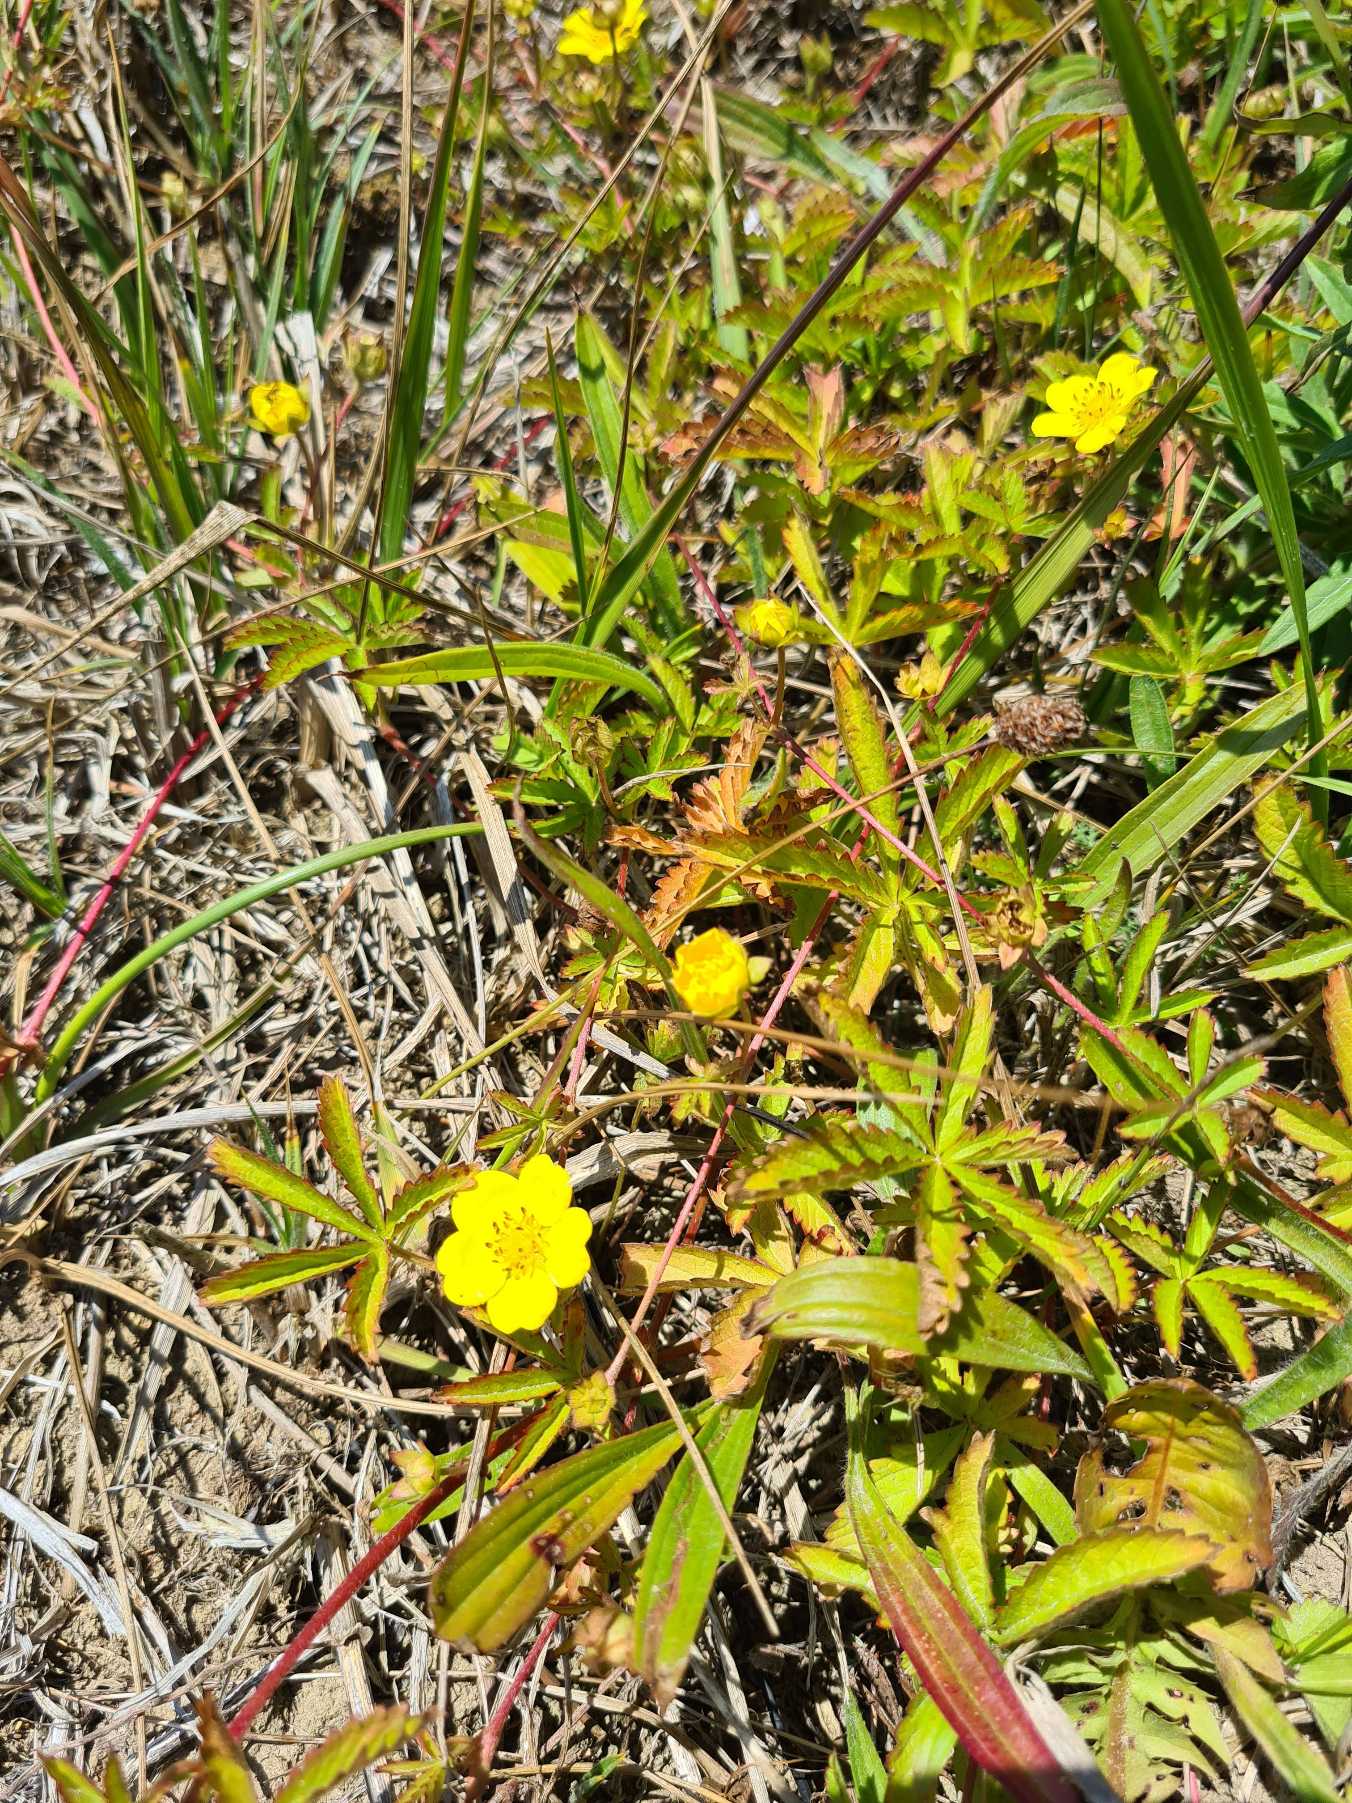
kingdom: Plantae
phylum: Tracheophyta
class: Magnoliopsida
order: Rosales
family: Rosaceae
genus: Potentilla
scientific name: Potentilla reptans
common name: Krybende potentil
